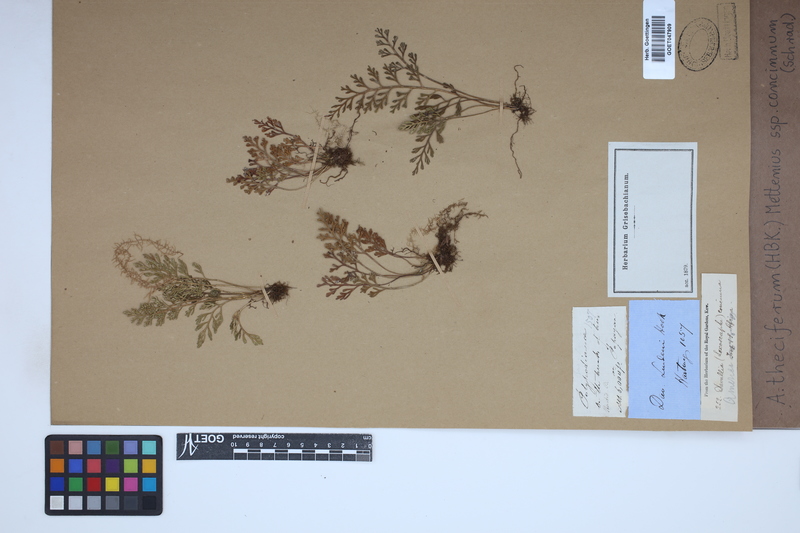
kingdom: Plantae
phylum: Tracheophyta
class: Polypodiopsida
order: Polypodiales
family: Aspleniaceae
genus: Asplenium
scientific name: Asplenium theciferum
